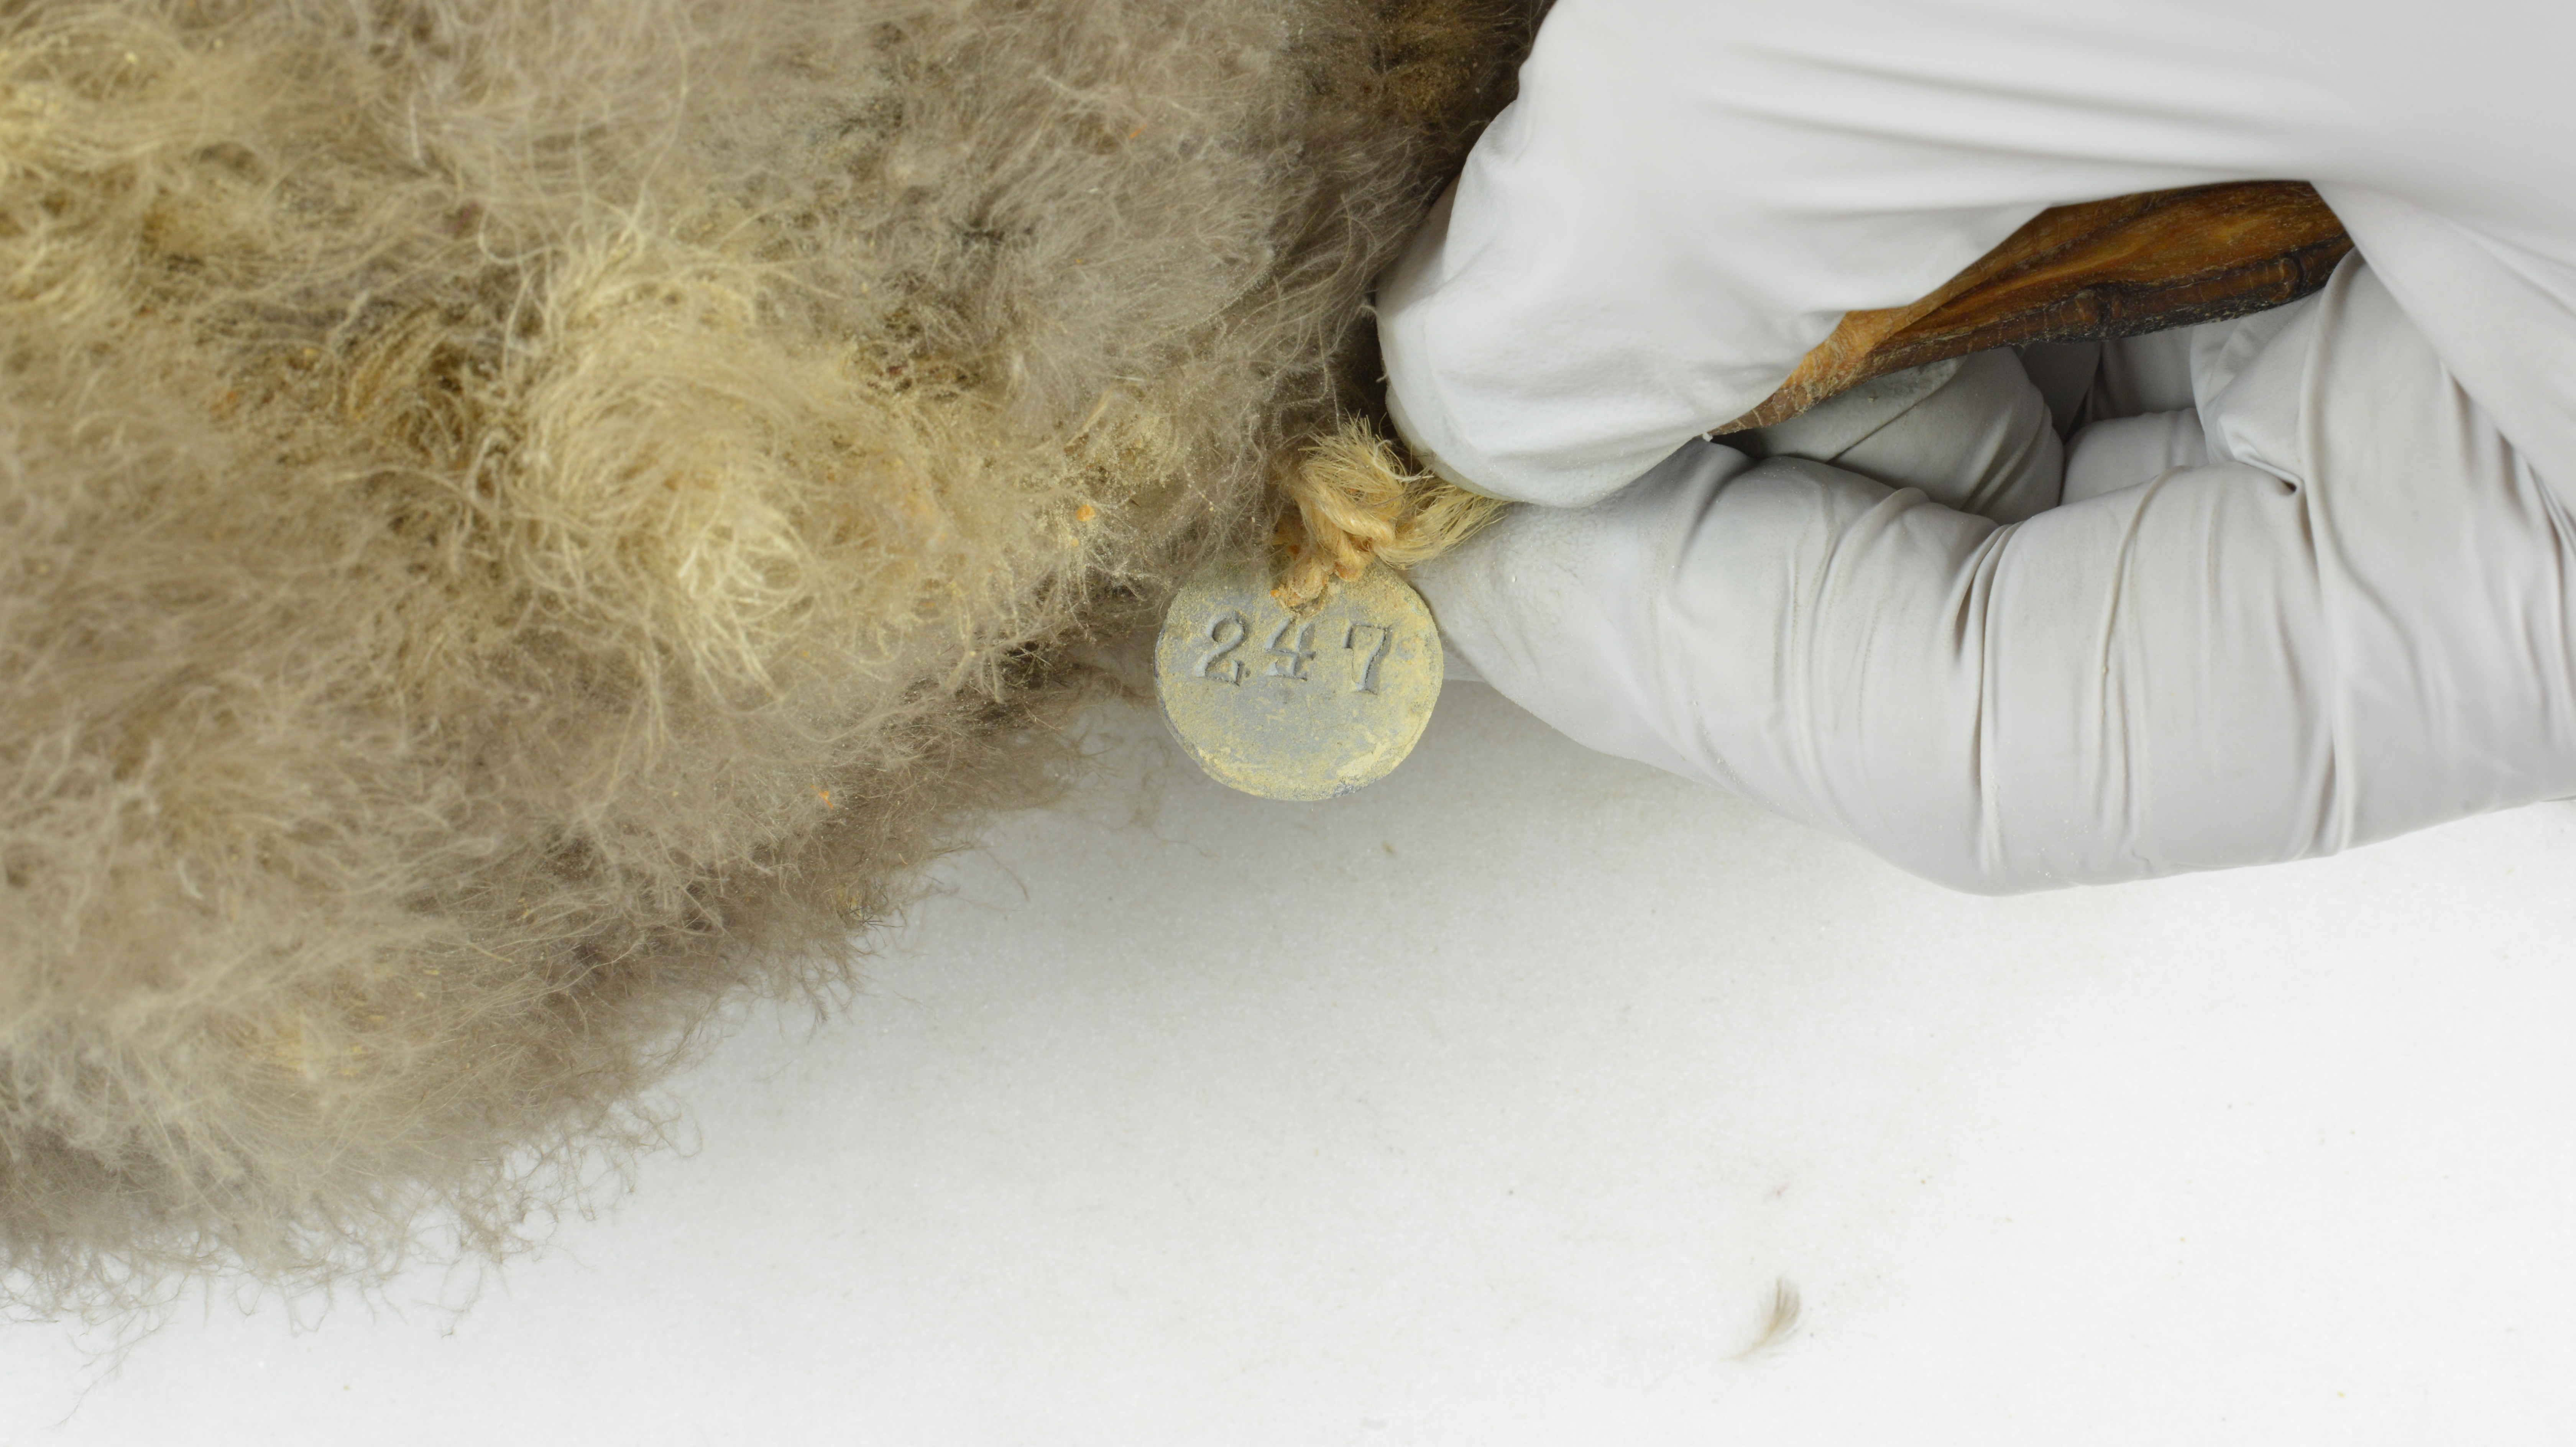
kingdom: Animalia
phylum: Chordata
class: Aves
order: Procellariiformes
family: Procellariidae
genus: Puffinus
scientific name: Puffinus gravis
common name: Great shearwater
